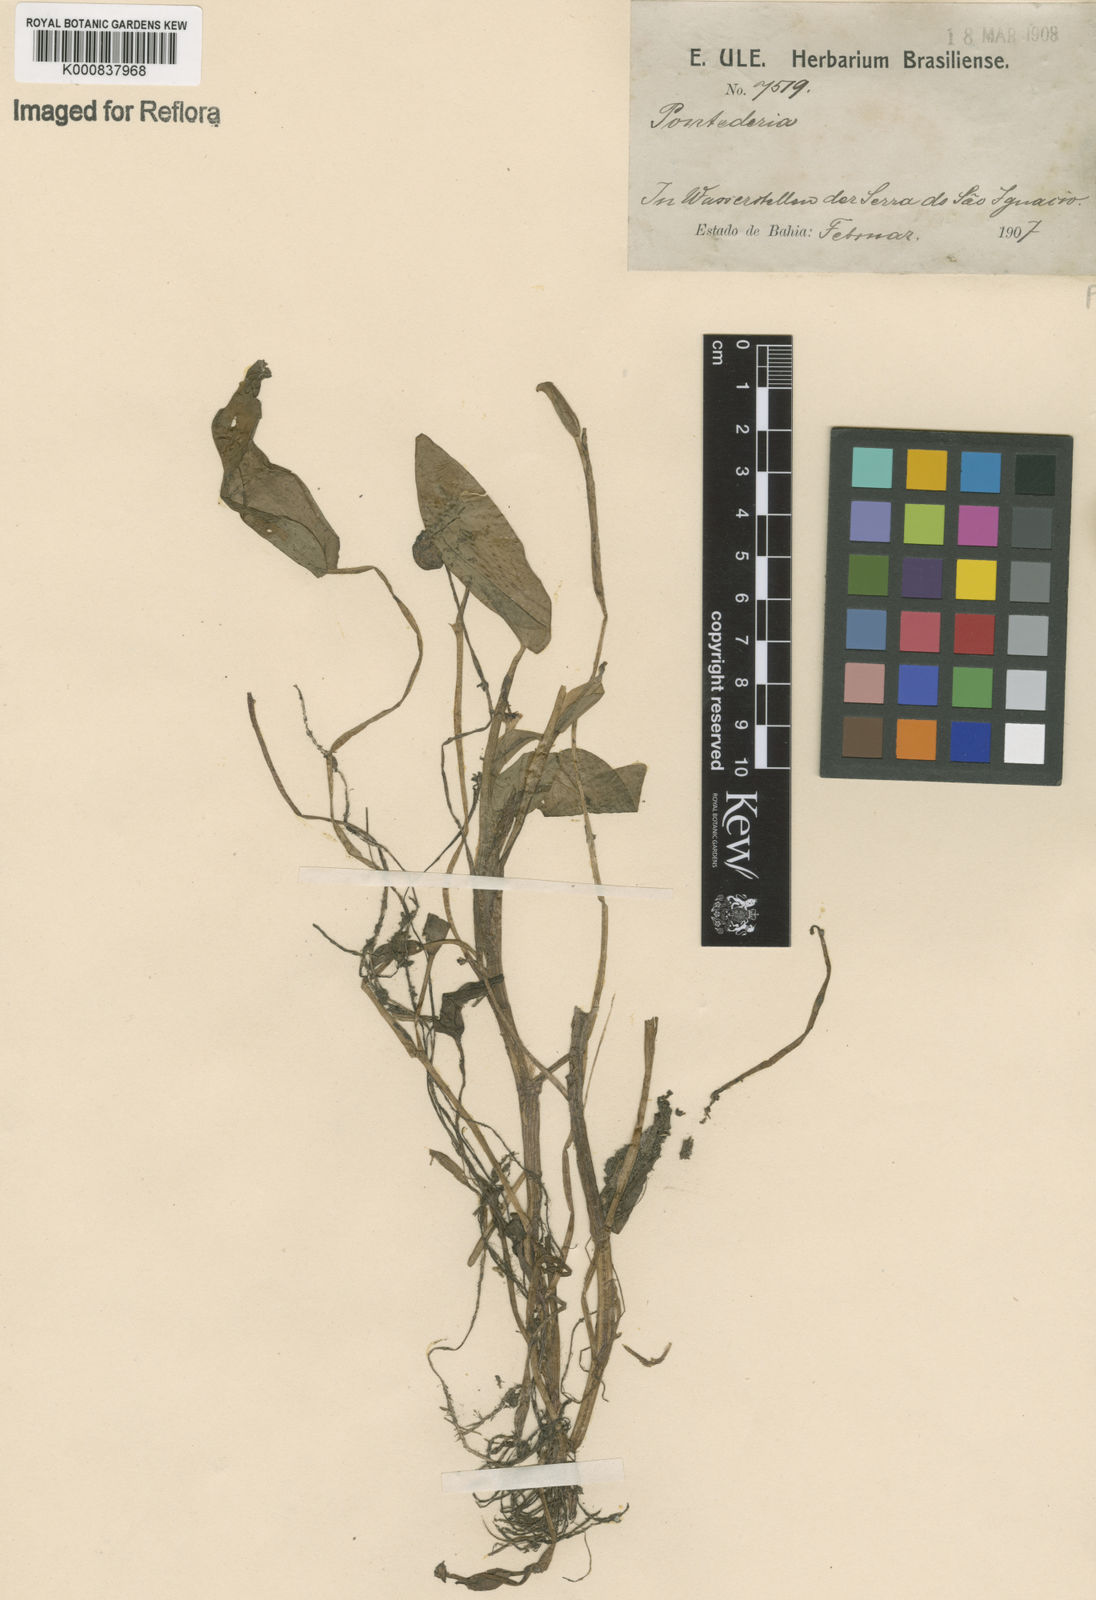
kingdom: Plantae
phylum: Tracheophyta
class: Liliopsida
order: Commelinales
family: Pontederiaceae
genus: Heteranthera
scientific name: Heteranthera oblongifolia
